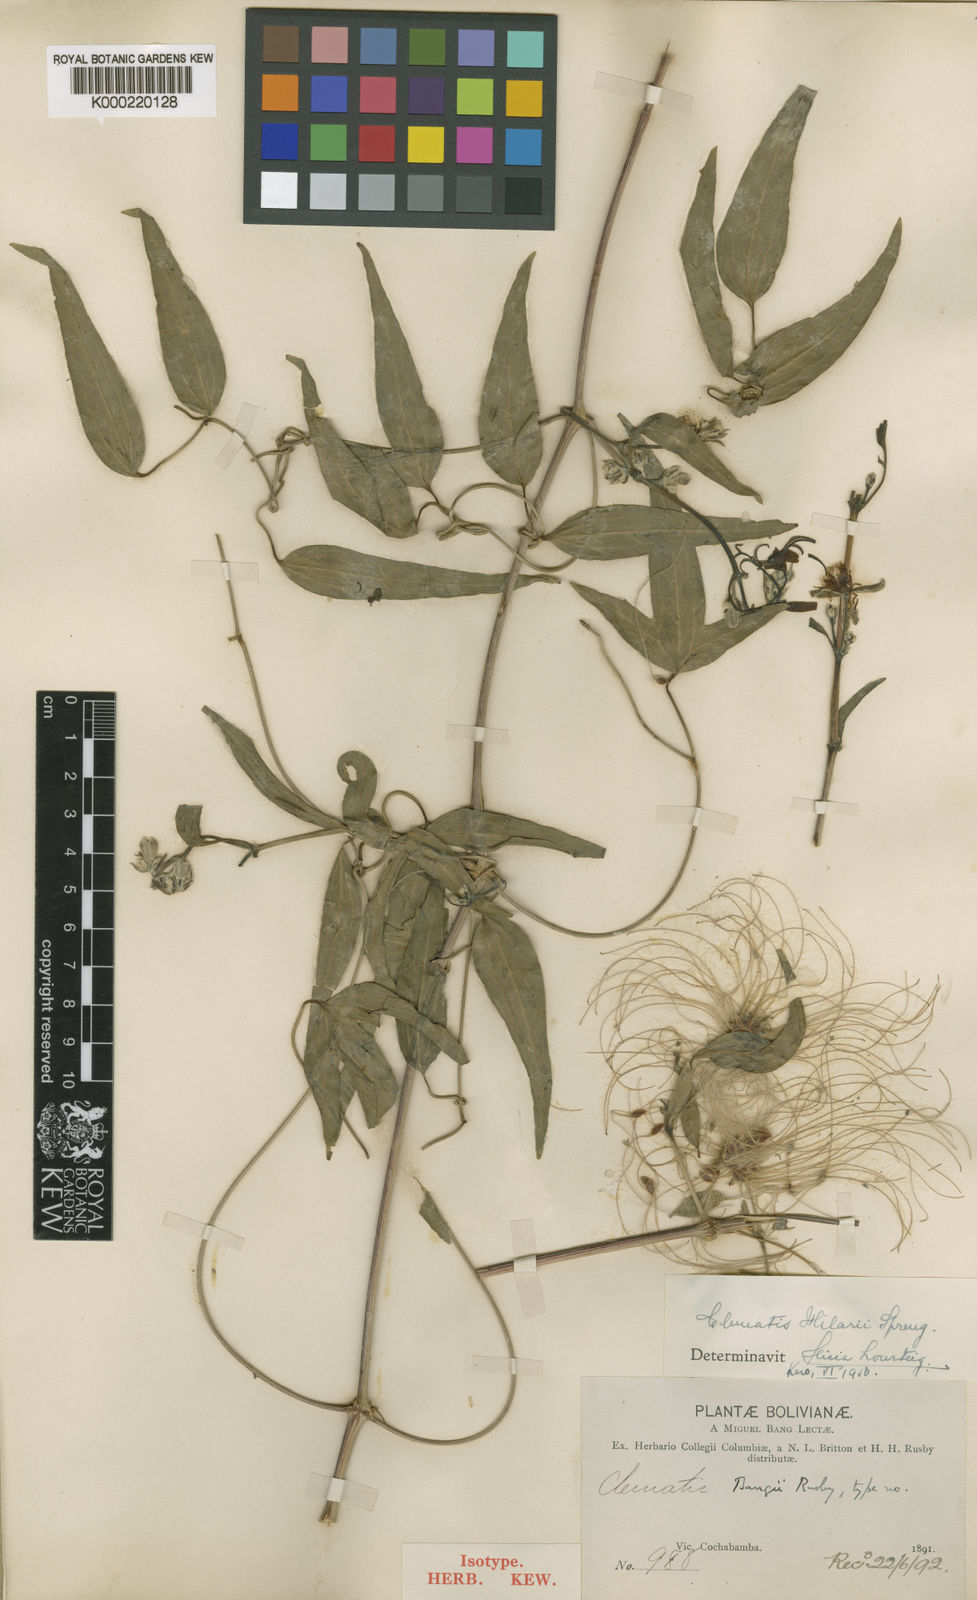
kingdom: Plantae
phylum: Tracheophyta
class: Magnoliopsida
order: Ranunculales
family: Ranunculaceae
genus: Clematis
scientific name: Clematis montevidensis
